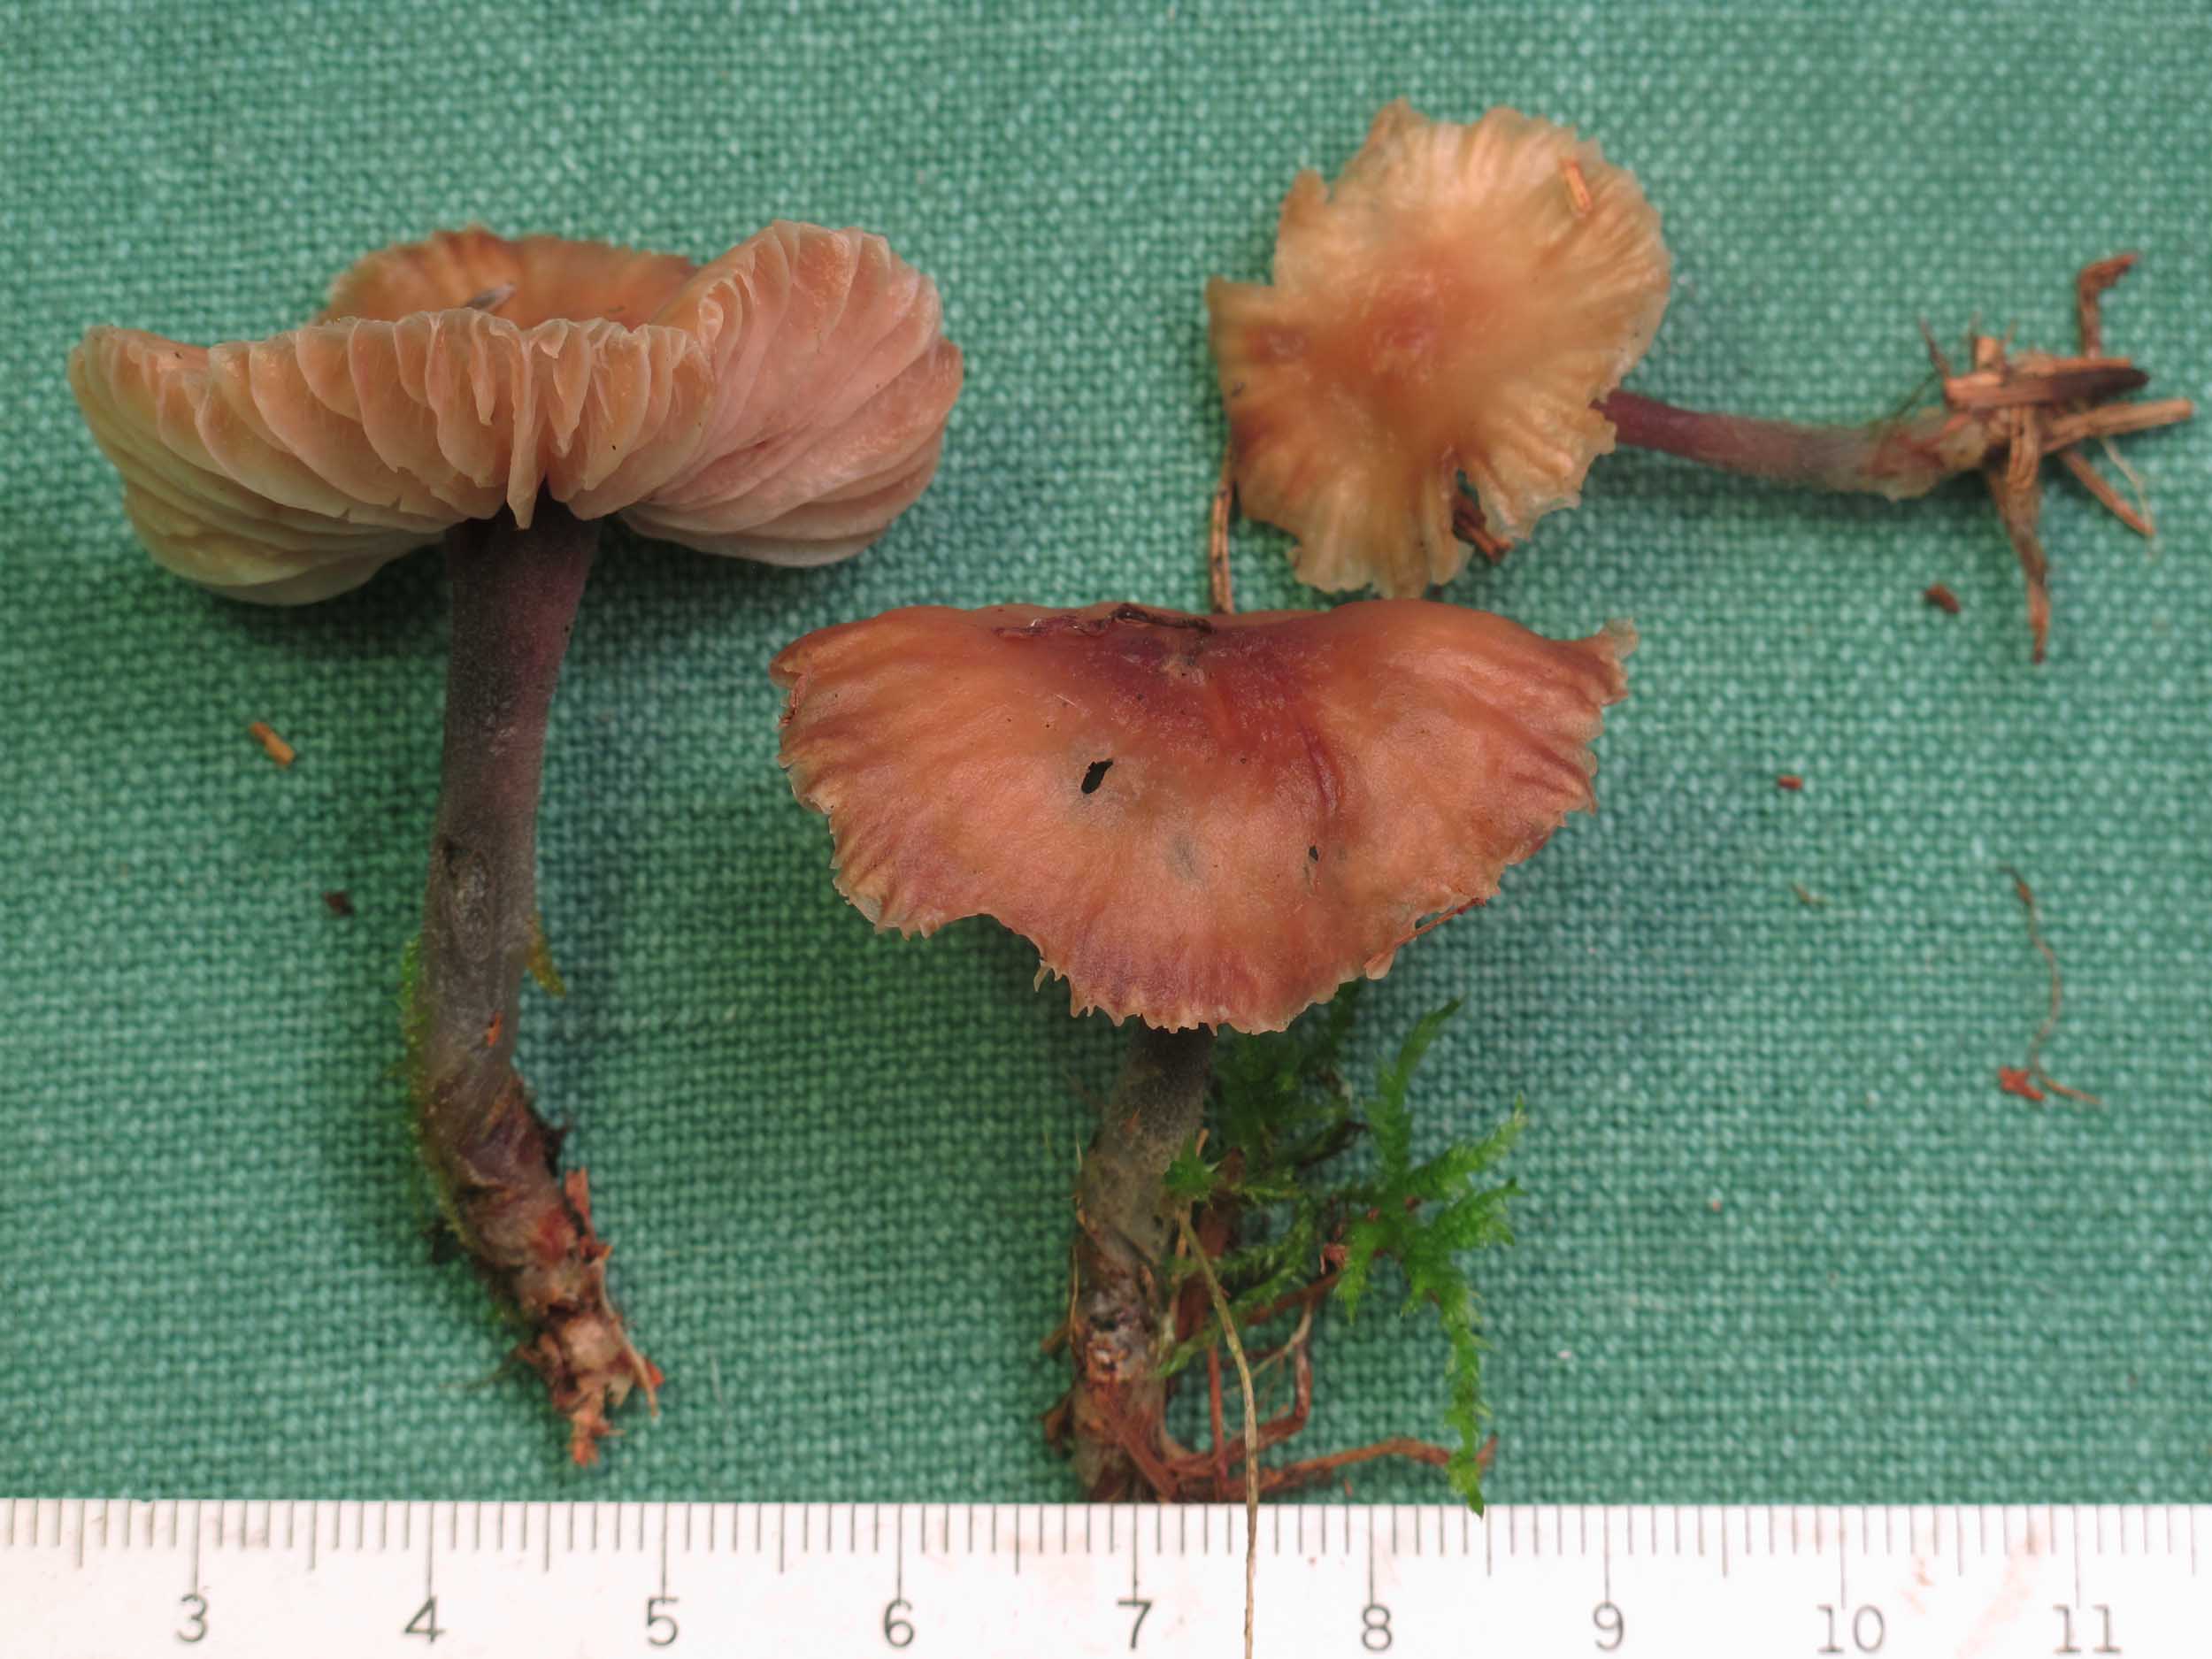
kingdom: Fungi
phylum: Basidiomycota
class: Agaricomycetes
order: Agaricales
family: Omphalotaceae
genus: Gymnopus
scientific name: Gymnopus impudicus
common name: fesen fladhat
